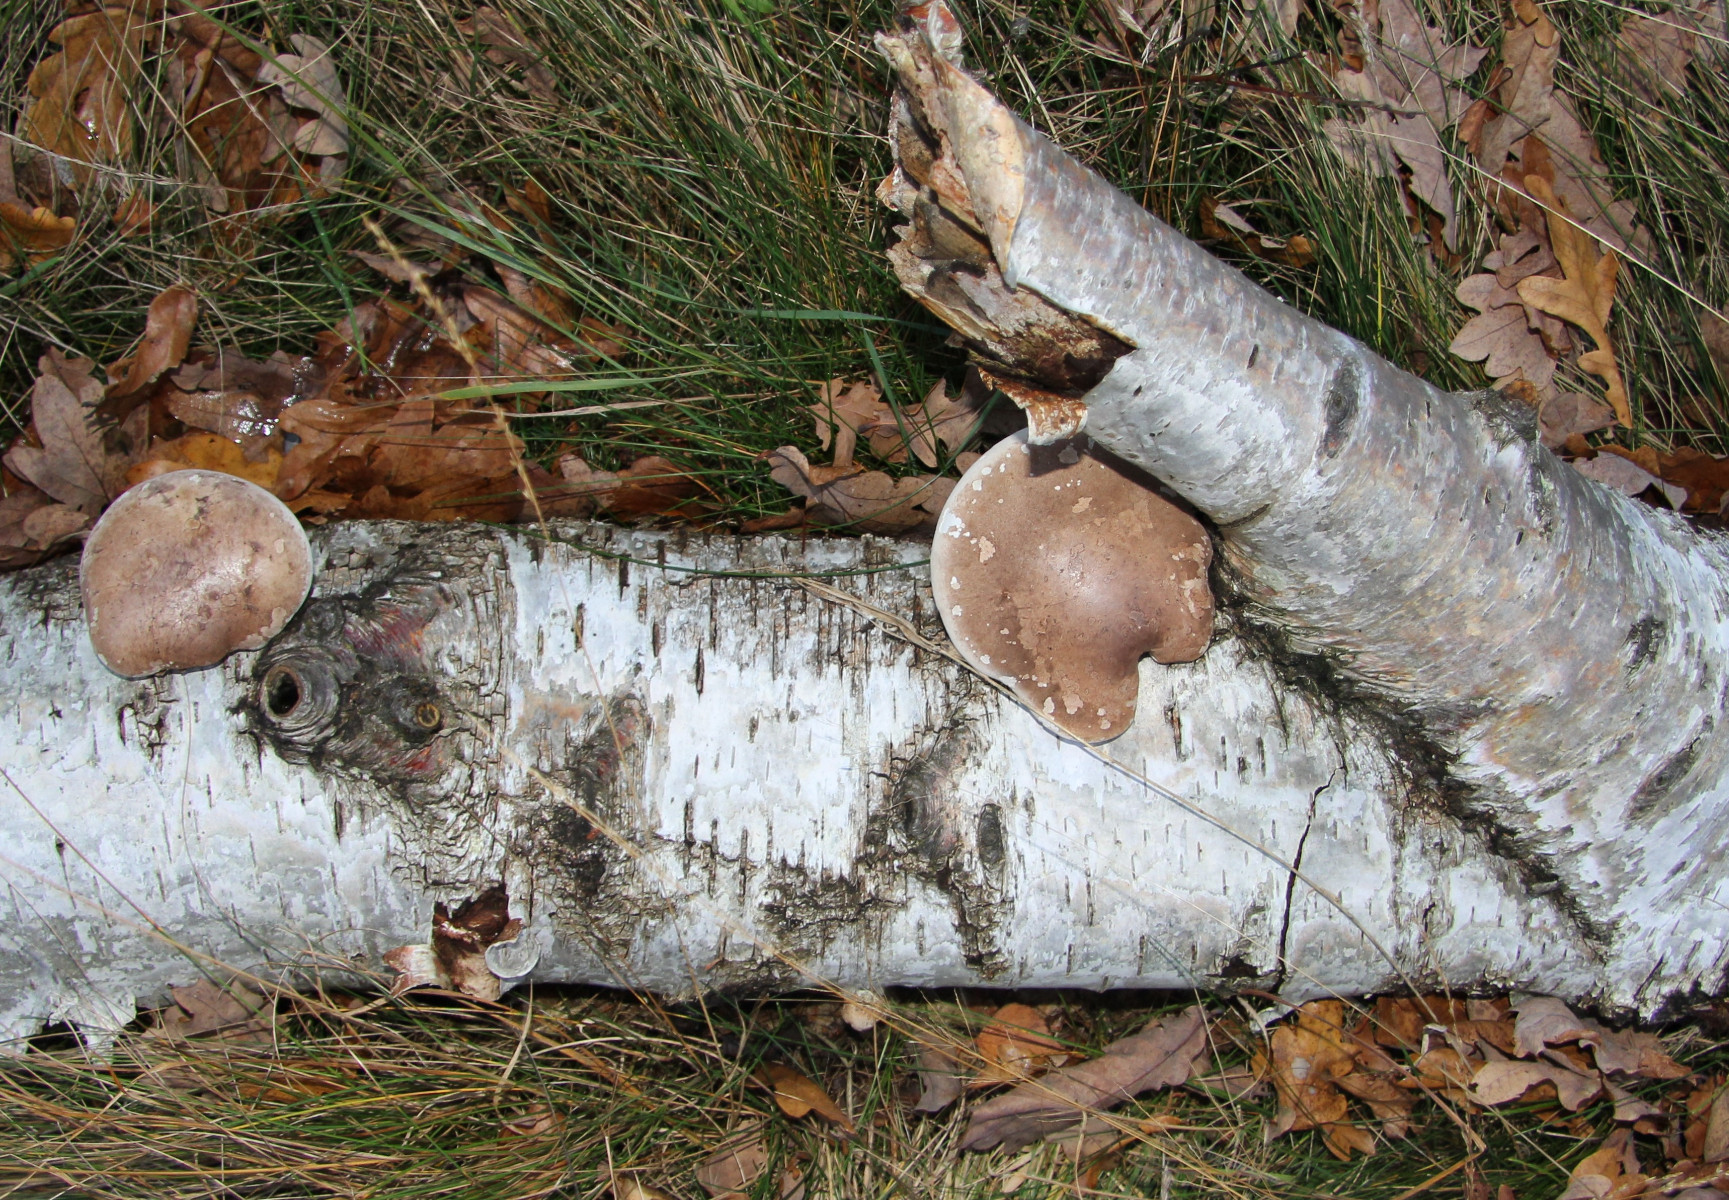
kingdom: Fungi
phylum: Basidiomycota
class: Agaricomycetes
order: Polyporales
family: Fomitopsidaceae
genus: Fomitopsis
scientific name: Fomitopsis betulina
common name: birkeporesvamp
